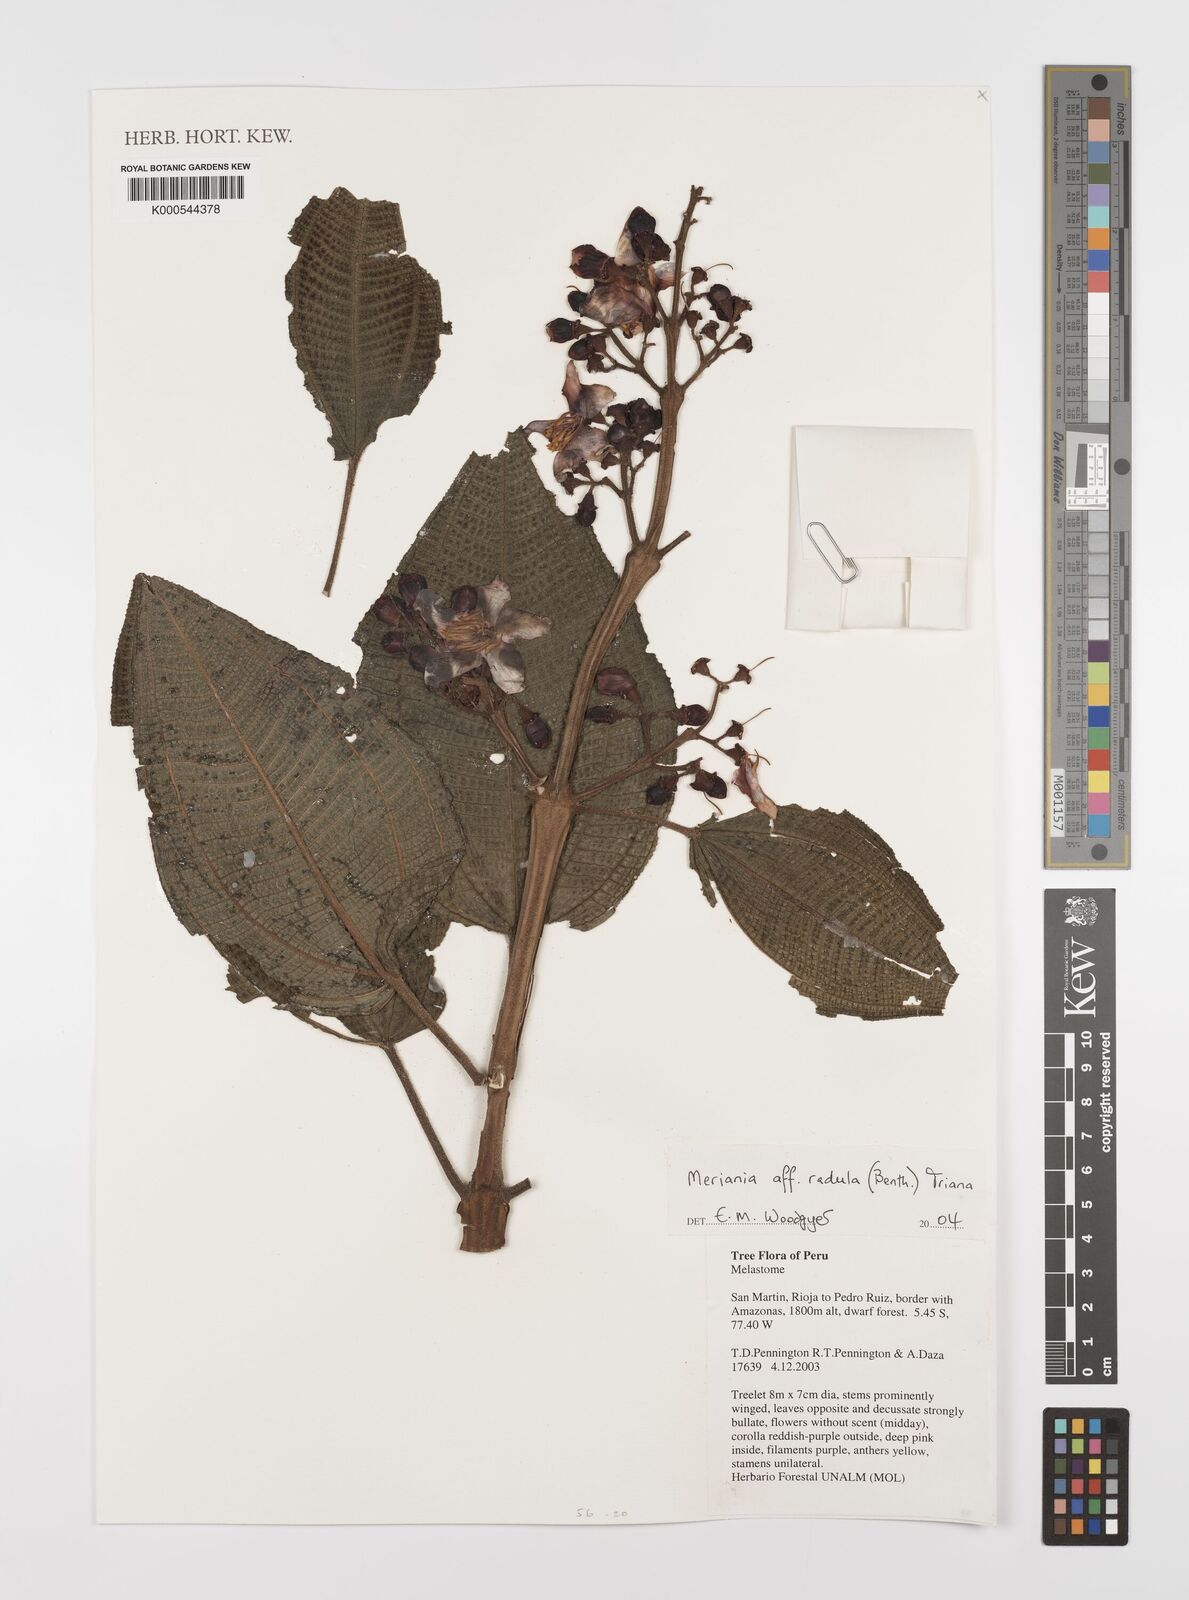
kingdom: Plantae
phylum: Tracheophyta
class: Magnoliopsida
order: Myrtales
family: Melastomataceae
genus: Meriania
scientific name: Meriania radula
